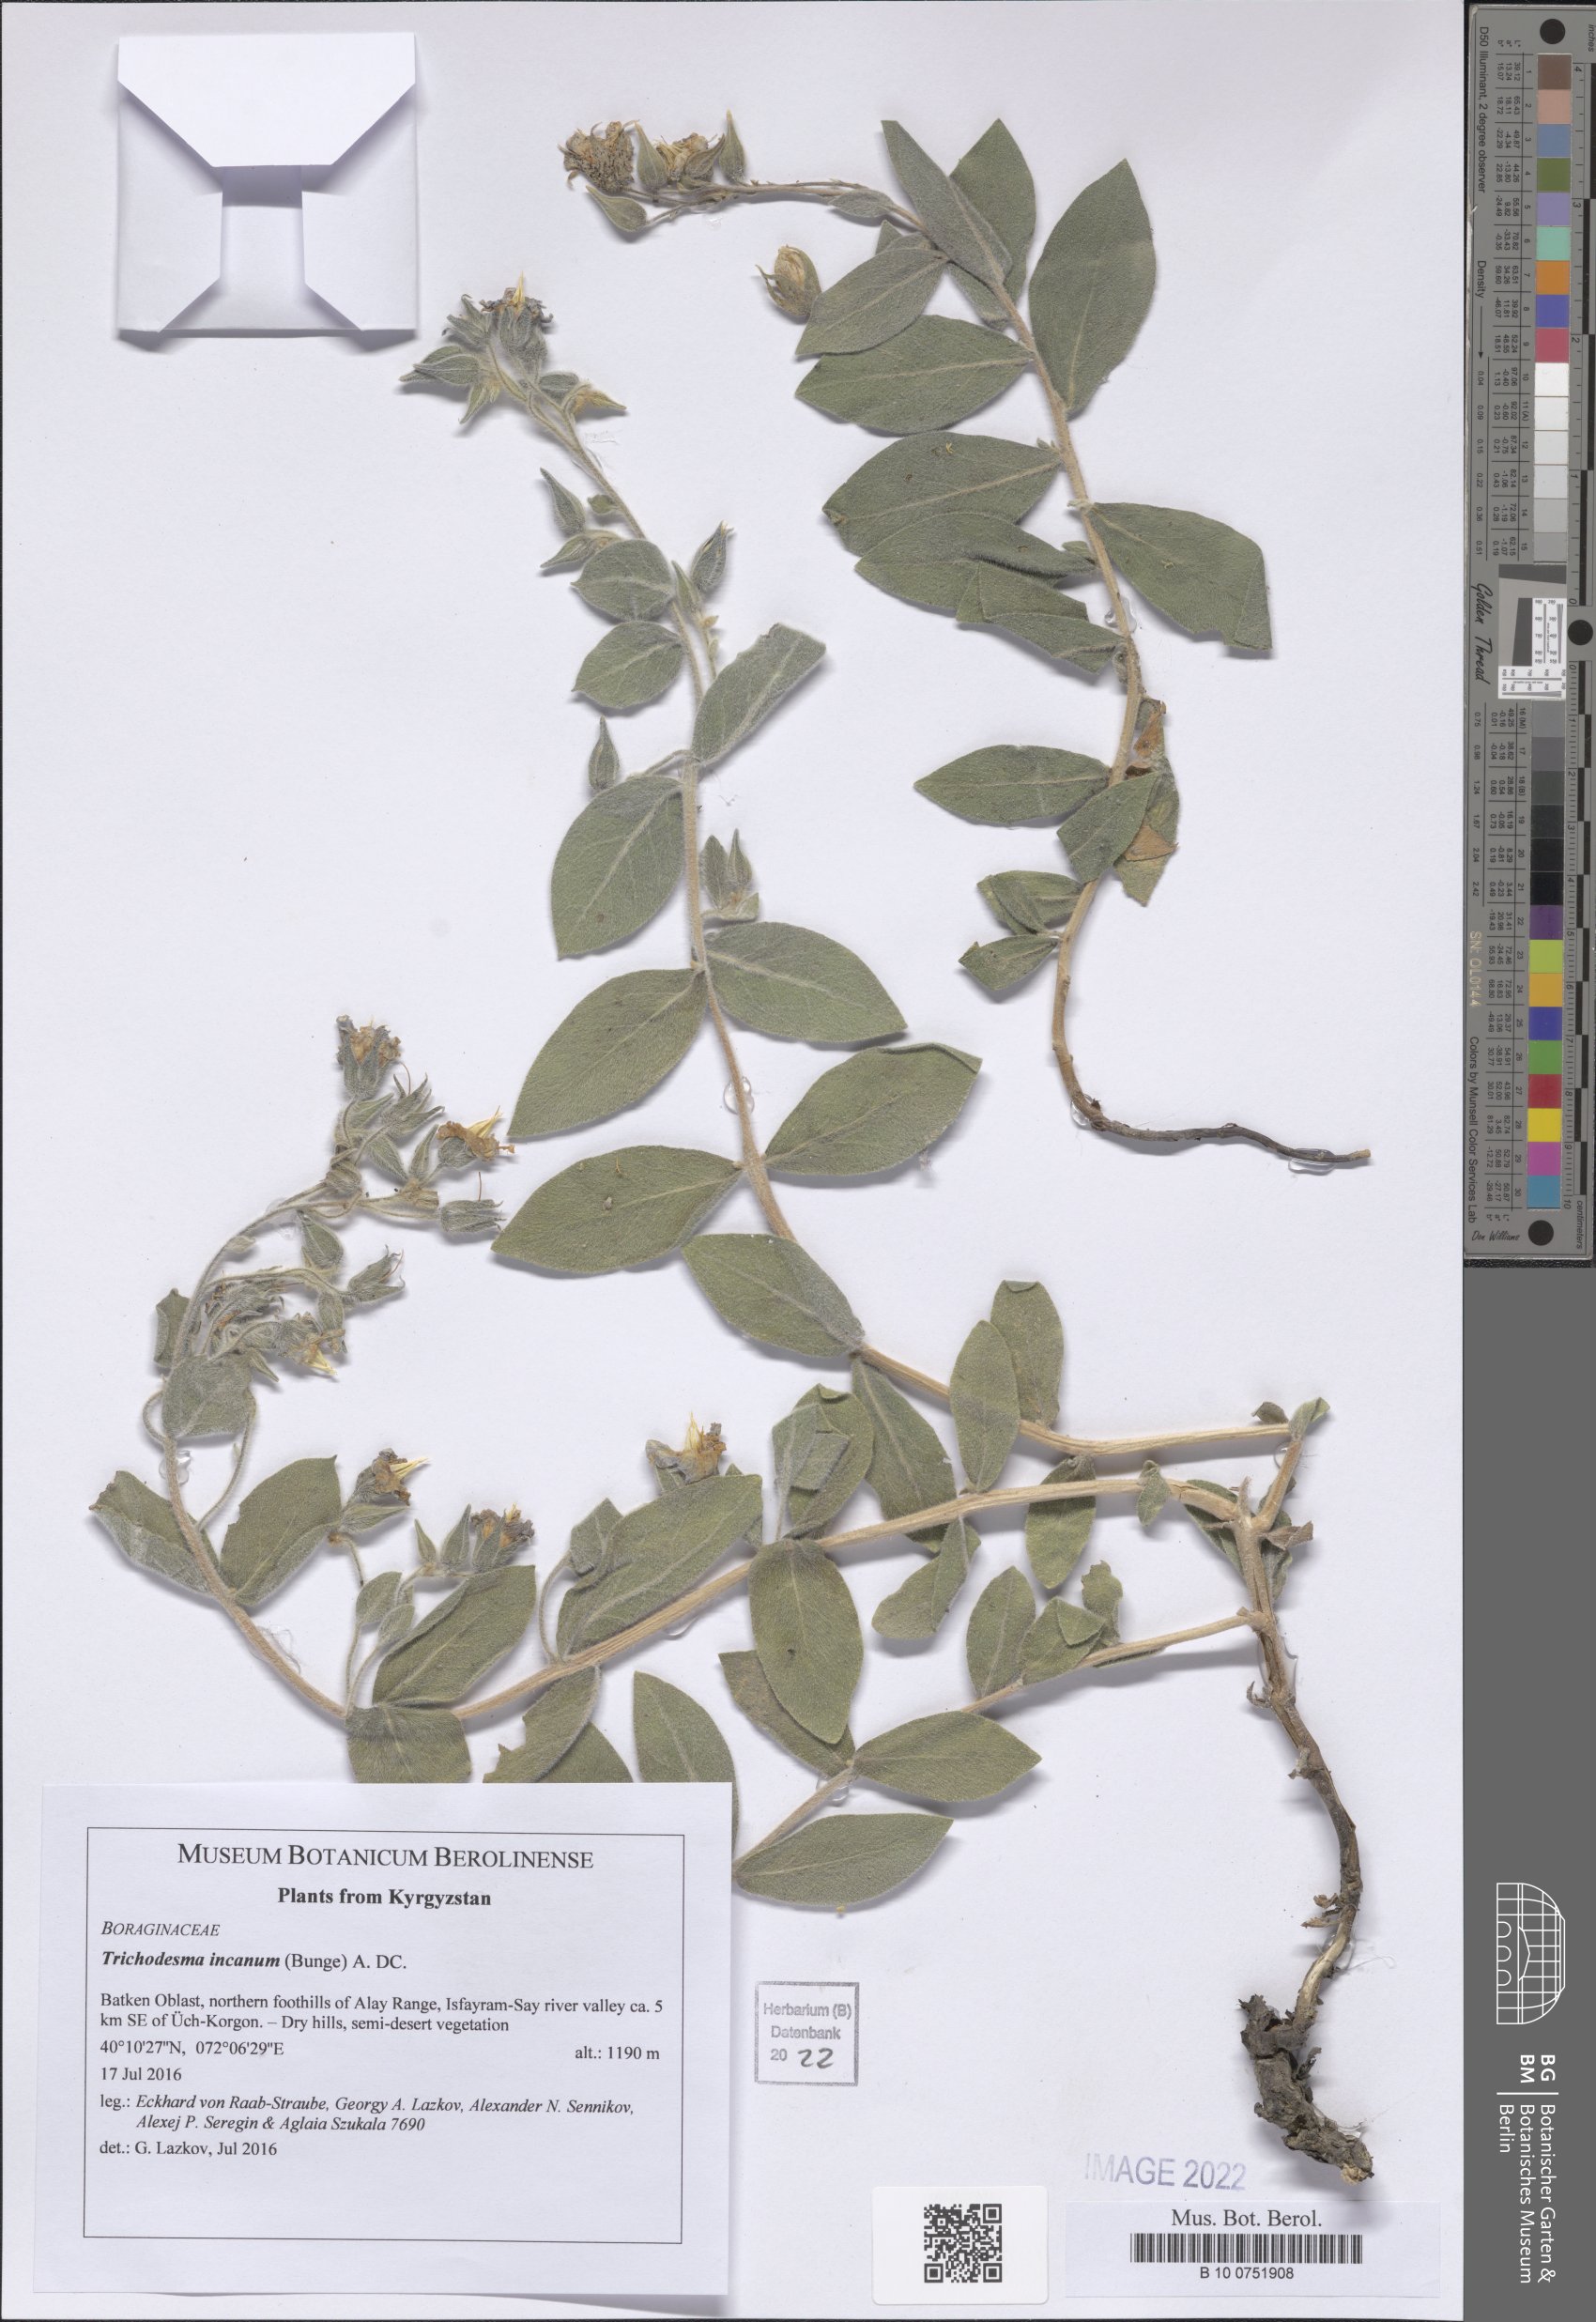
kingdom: Plantae
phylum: Tracheophyta
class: Magnoliopsida
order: Boraginales
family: Boraginaceae
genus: Trichodesma
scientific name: Trichodesma incanum
